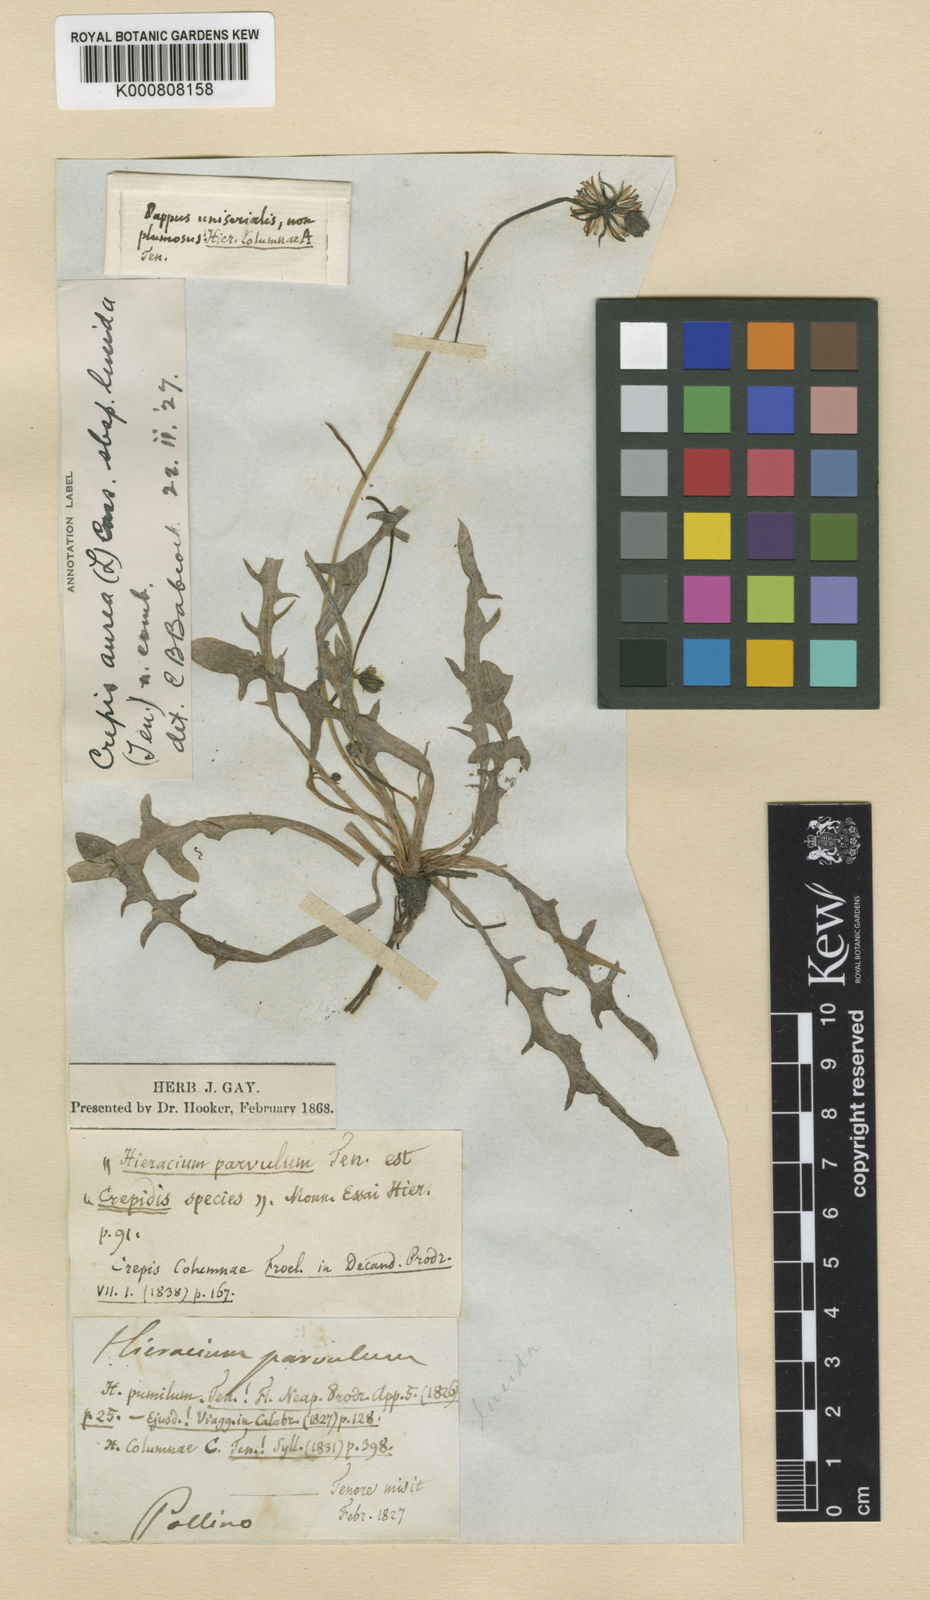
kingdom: Plantae
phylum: Tracheophyta
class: Magnoliopsida
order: Asterales
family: Asteraceae
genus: Crepis
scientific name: Crepis
